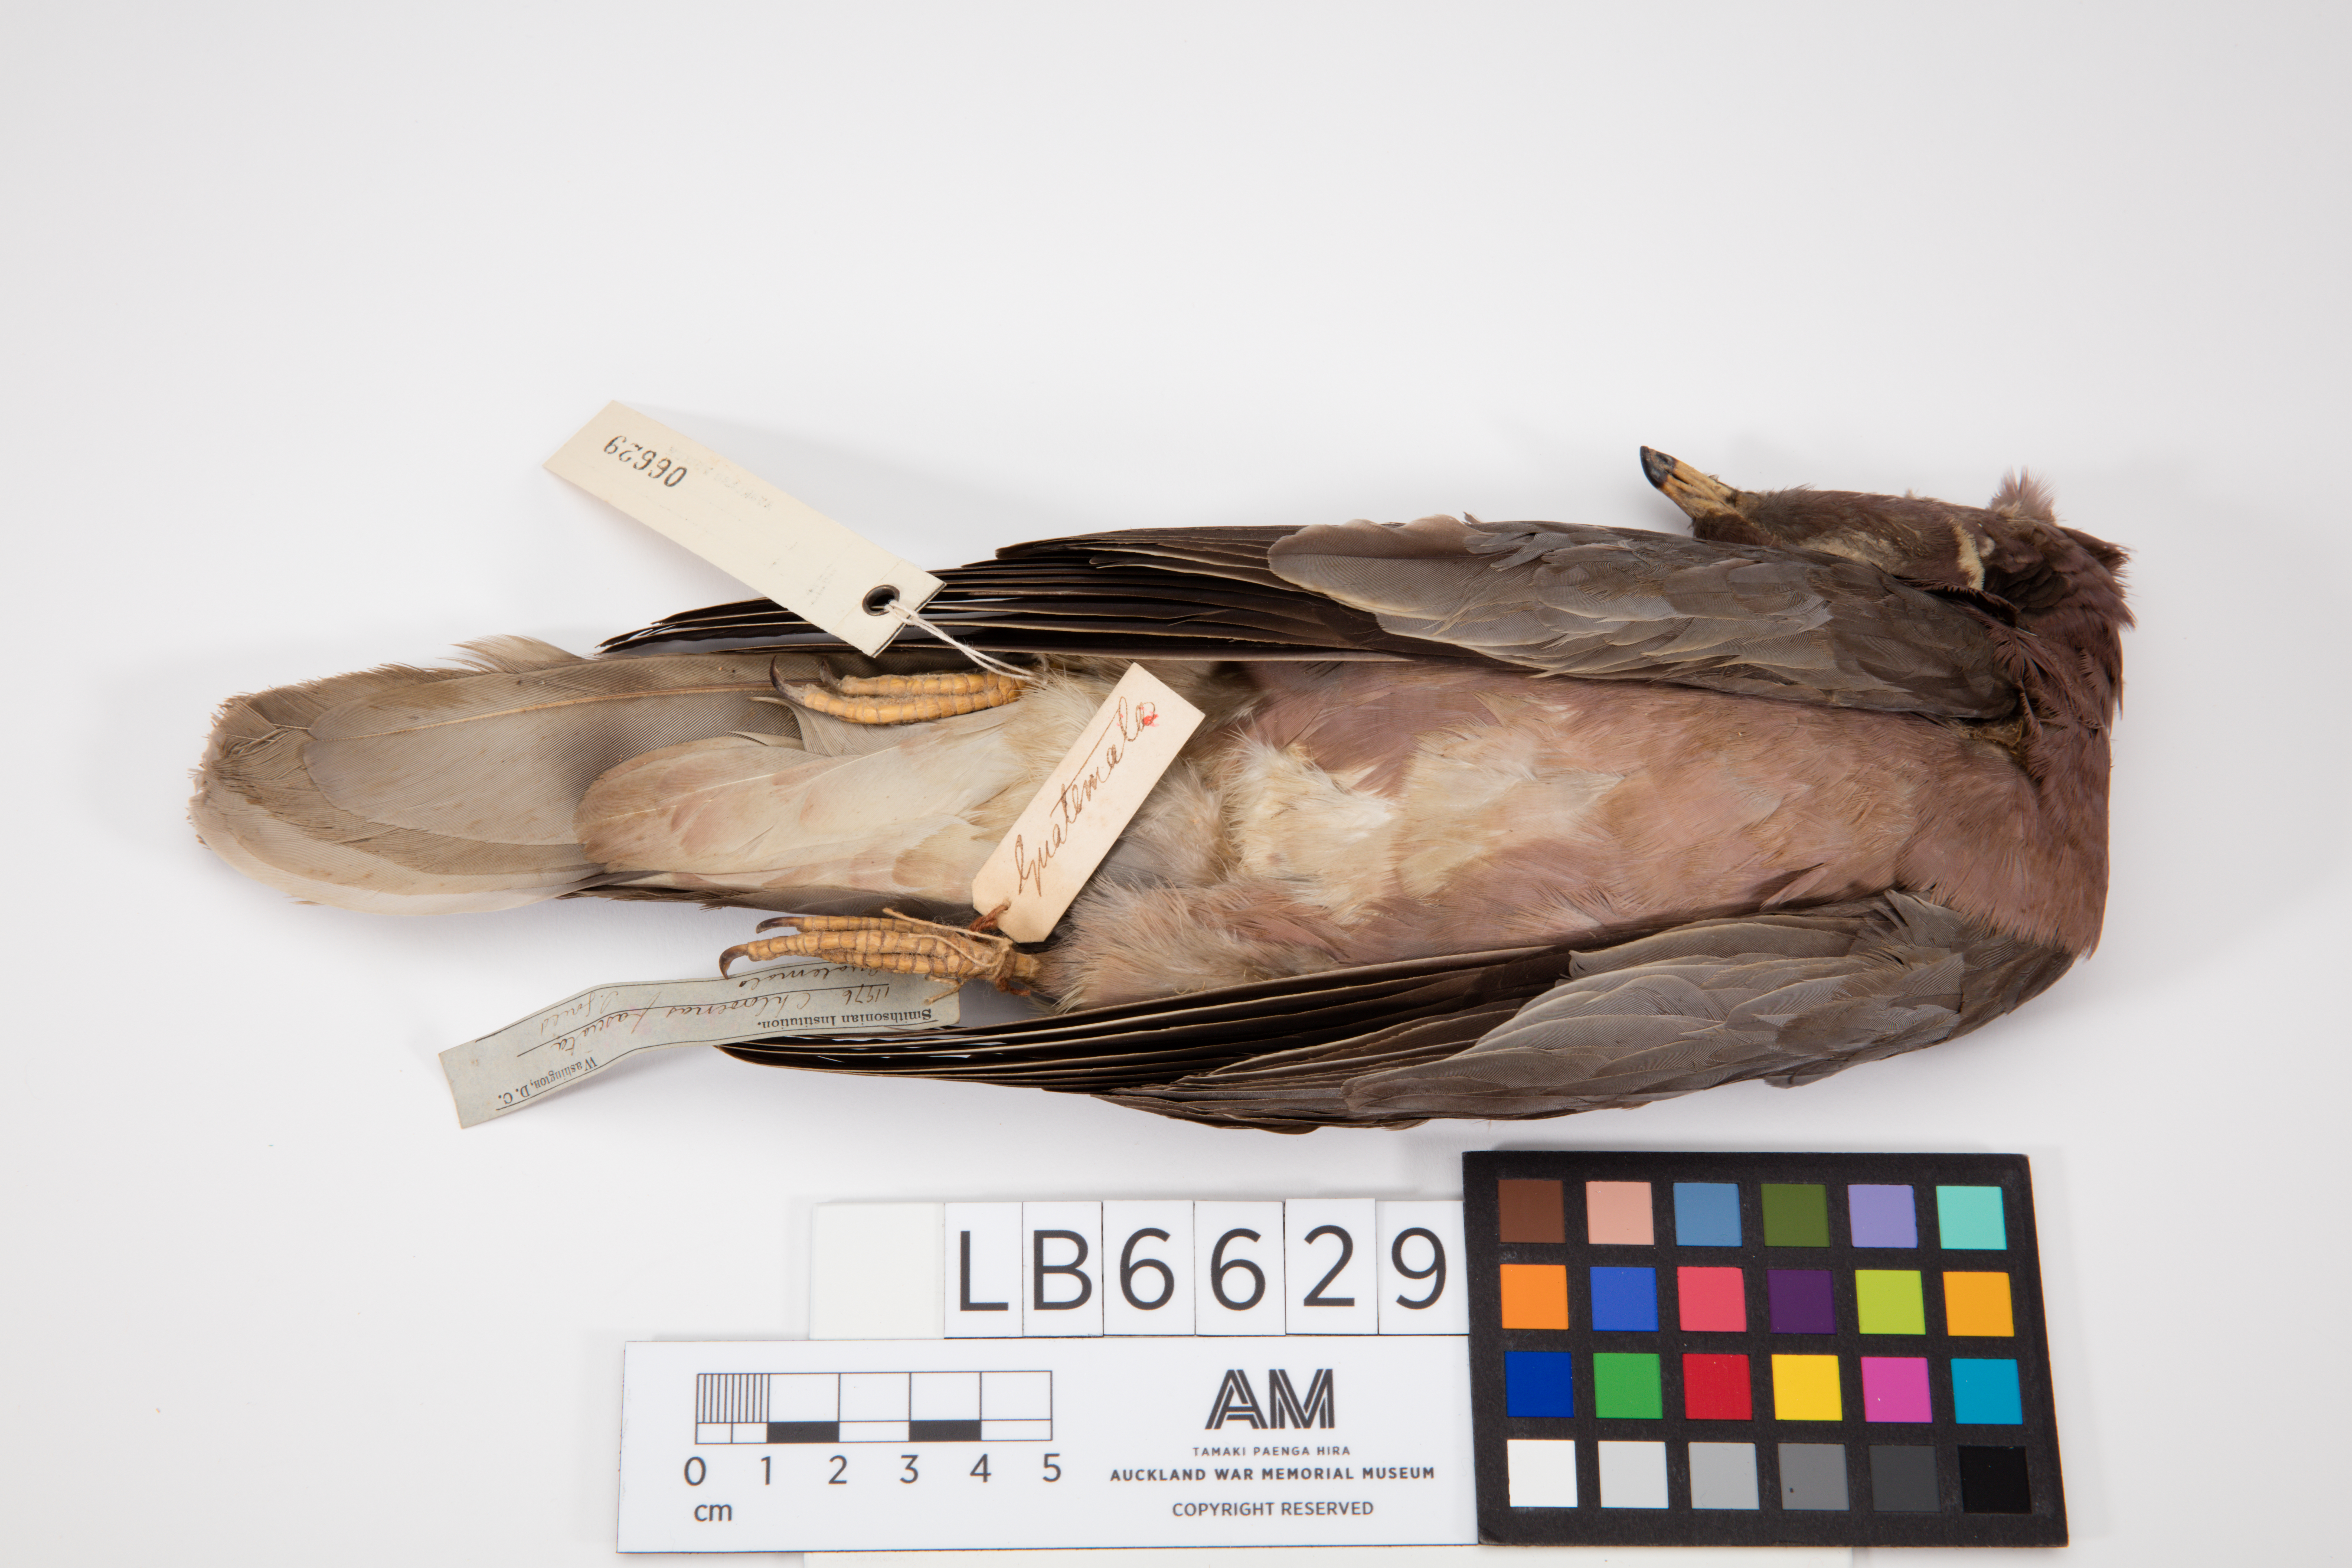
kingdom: Animalia
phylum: Chordata
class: Aves
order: Columbiformes
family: Columbidae
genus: Patagioenas
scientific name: Patagioenas fasciata
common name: Band-tailed pigeon
